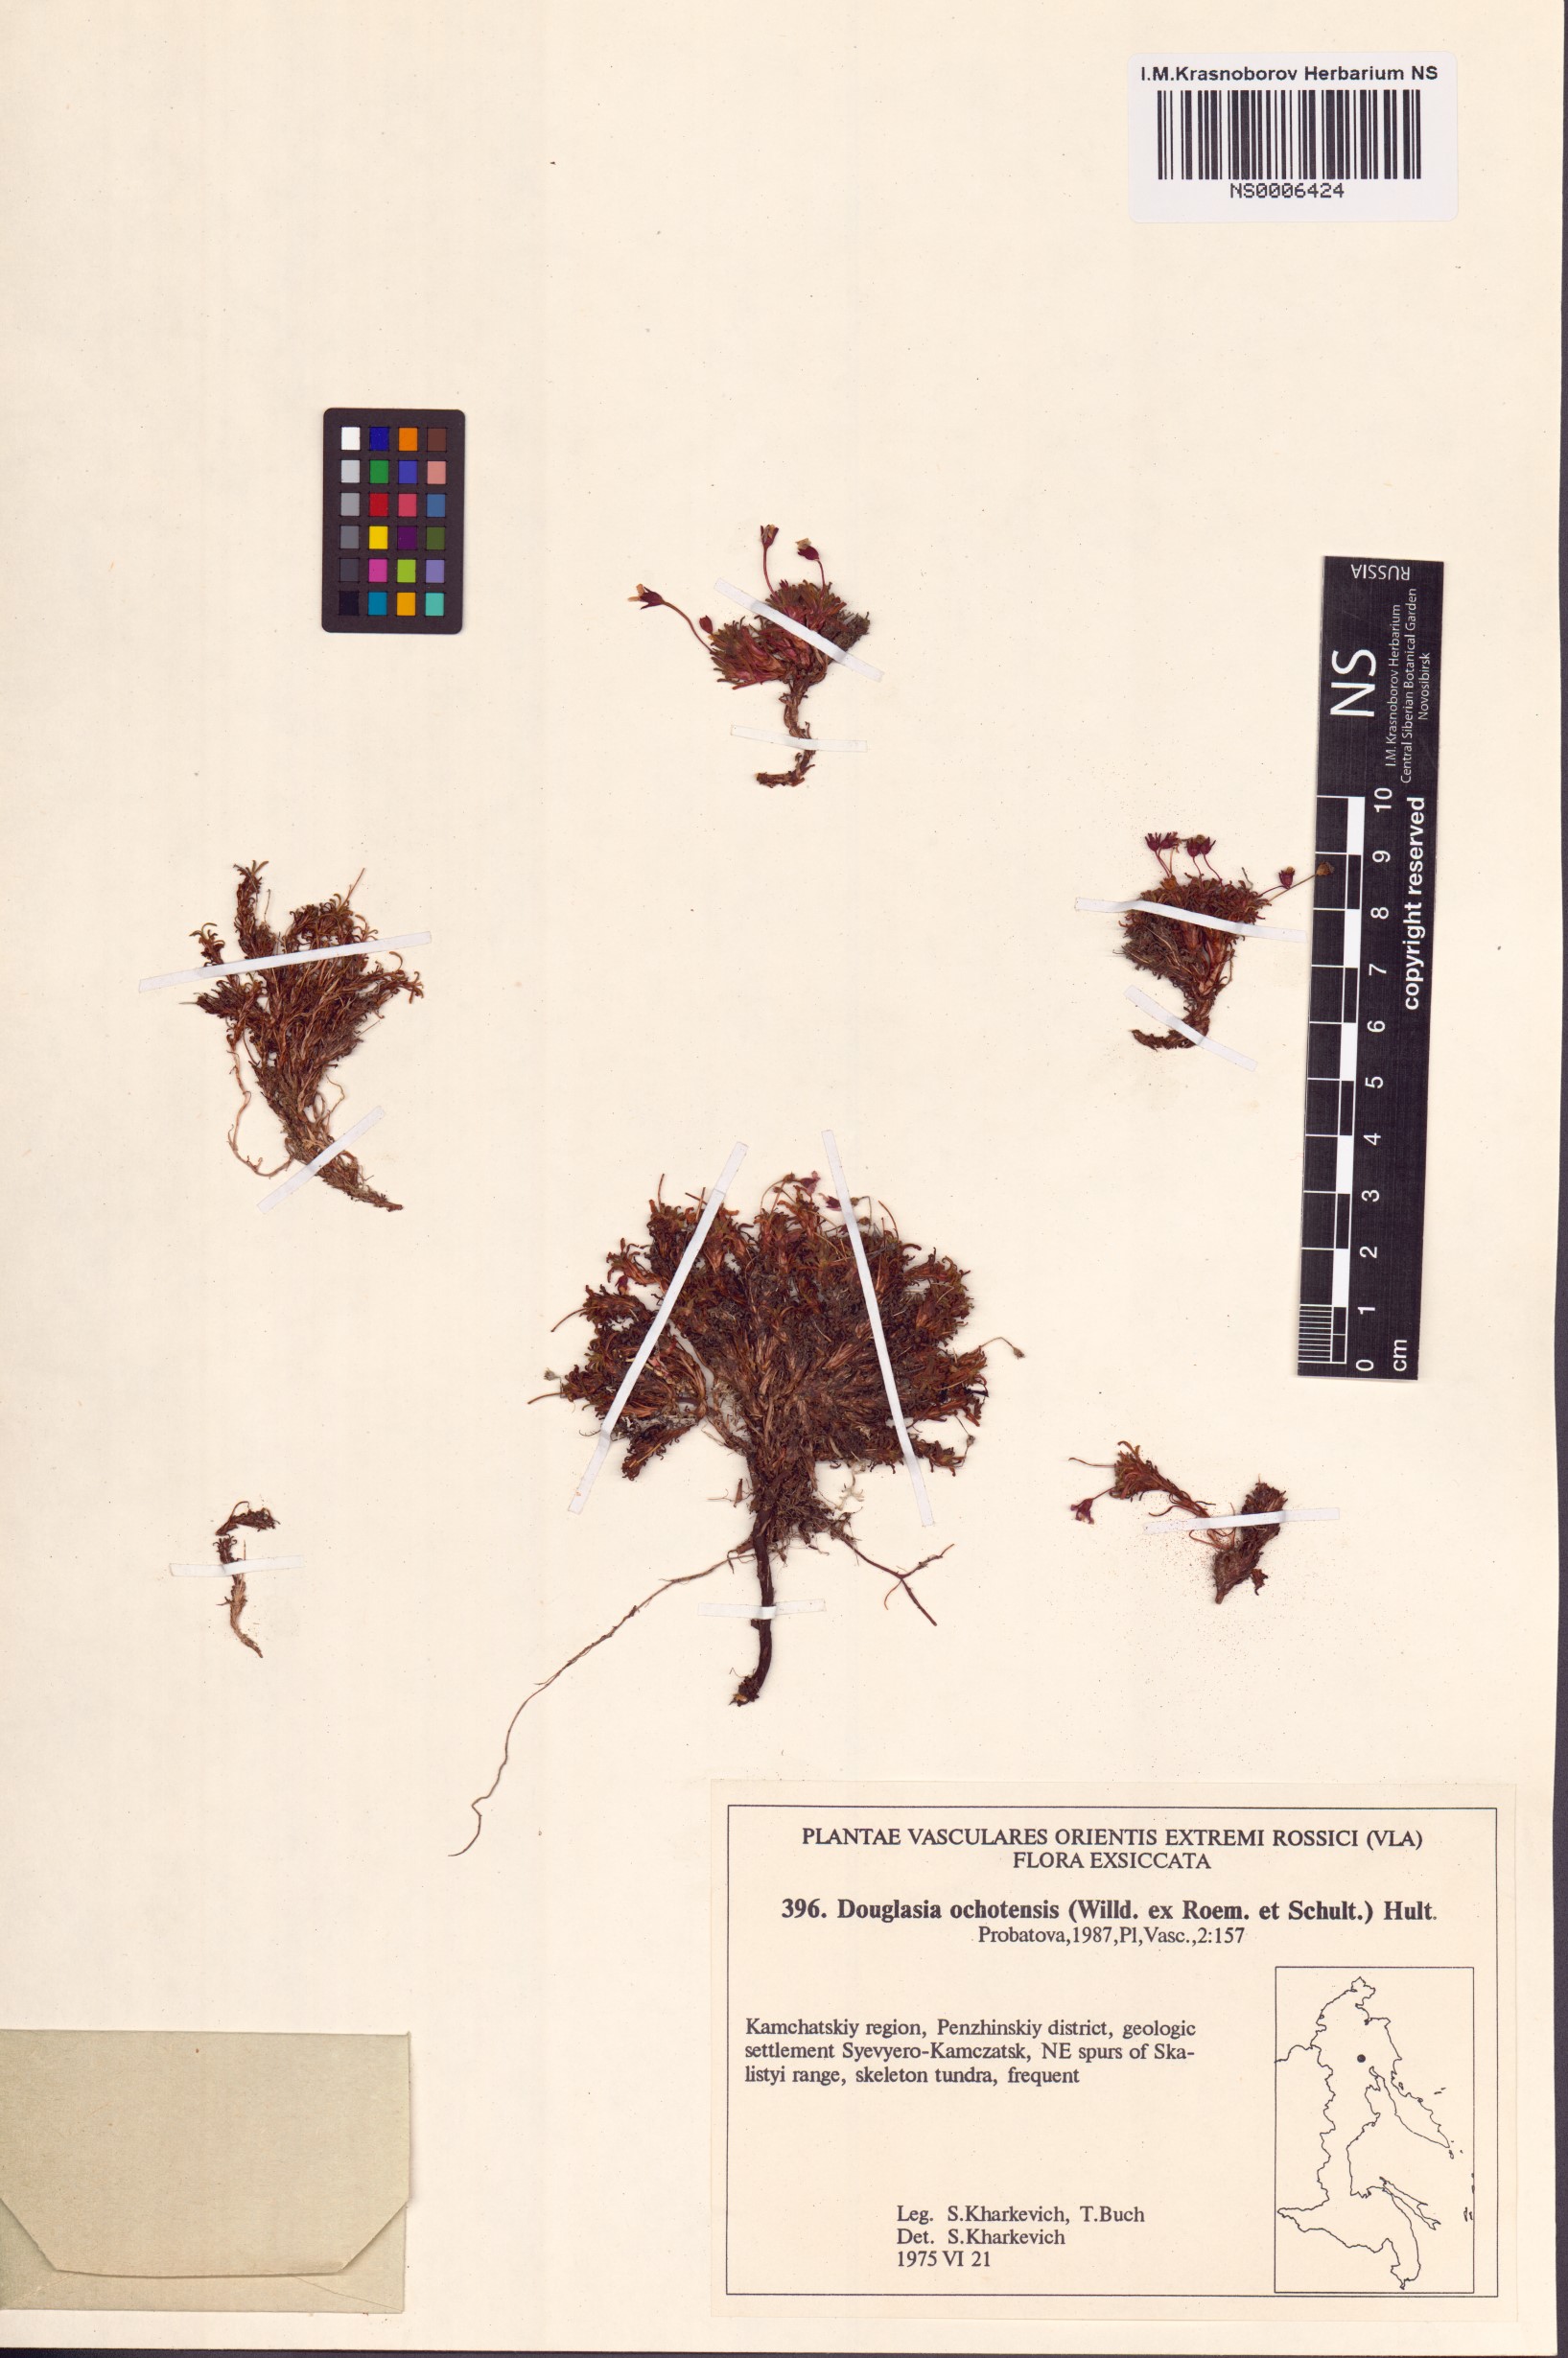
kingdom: Plantae
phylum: Tracheophyta
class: Magnoliopsida
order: Ericales
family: Primulaceae
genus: Androsace
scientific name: Androsace ochotensis
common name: Alaska dwarf-primrose
